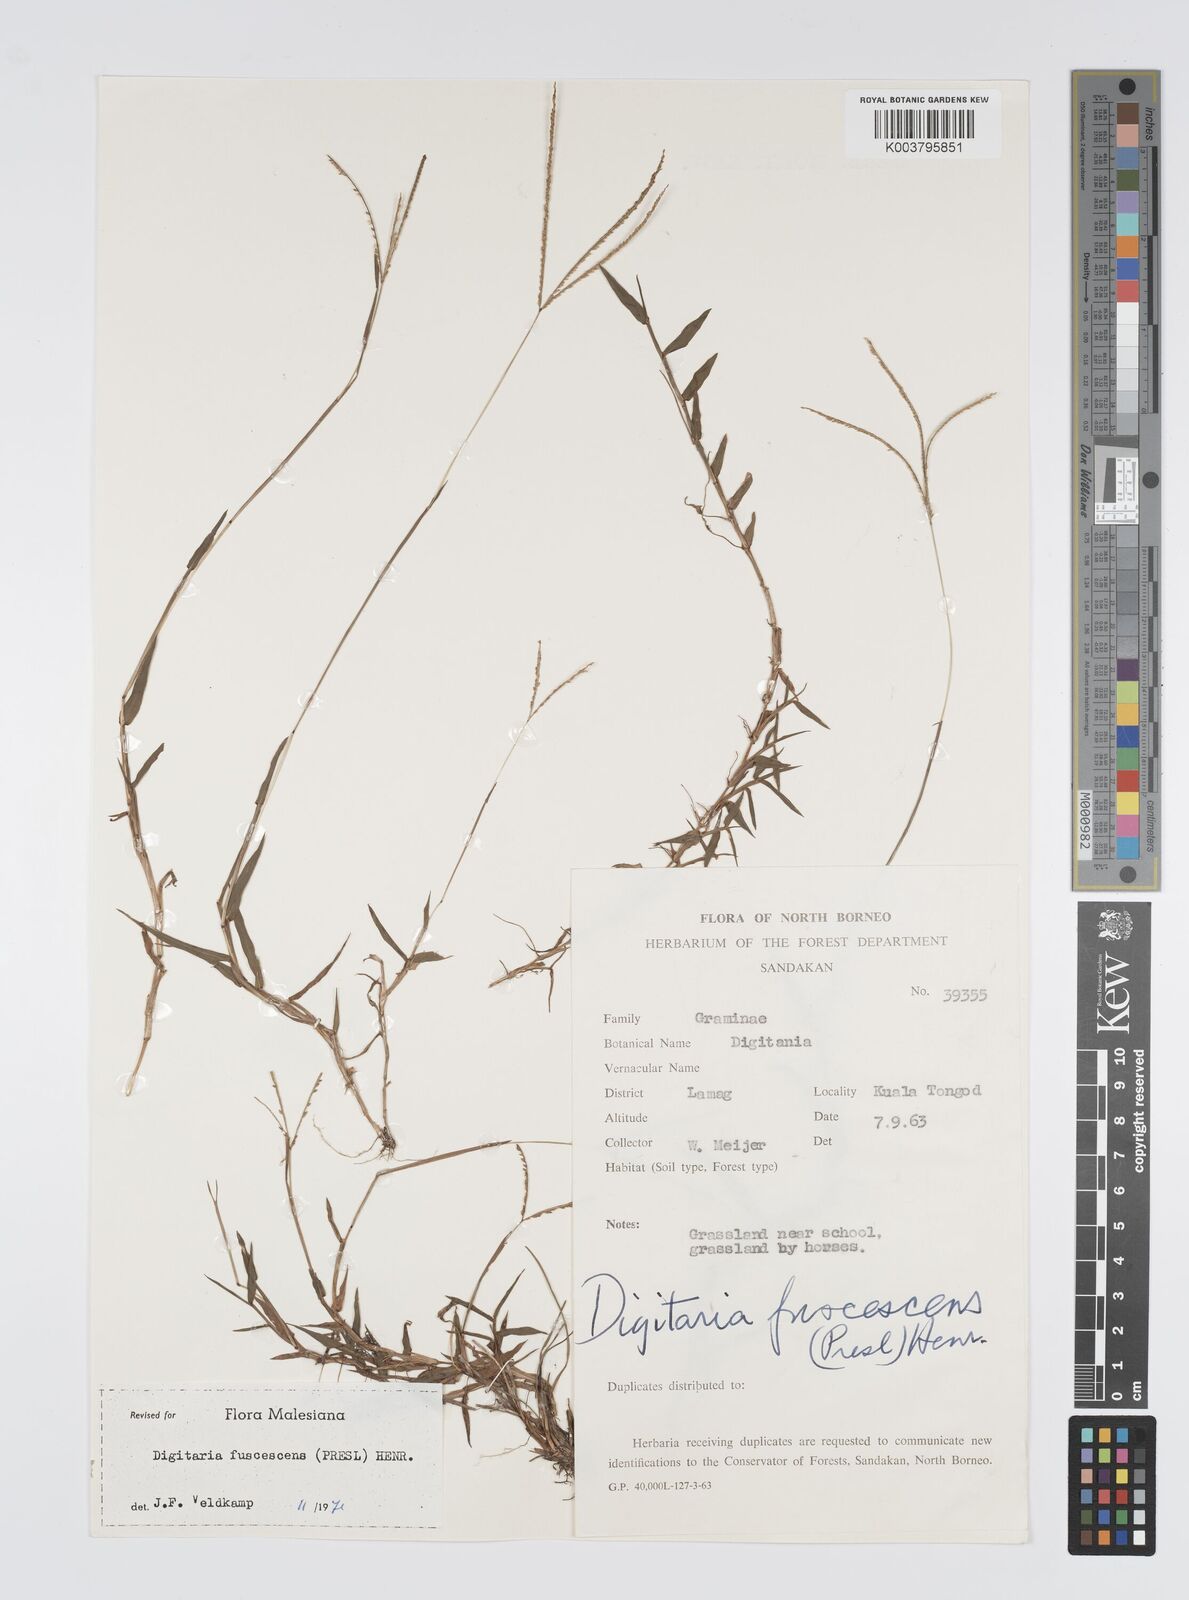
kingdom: Plantae
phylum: Tracheophyta
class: Liliopsida
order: Poales
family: Poaceae
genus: Digitaria
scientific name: Digitaria fuscescens
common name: Yellow crabgrass
